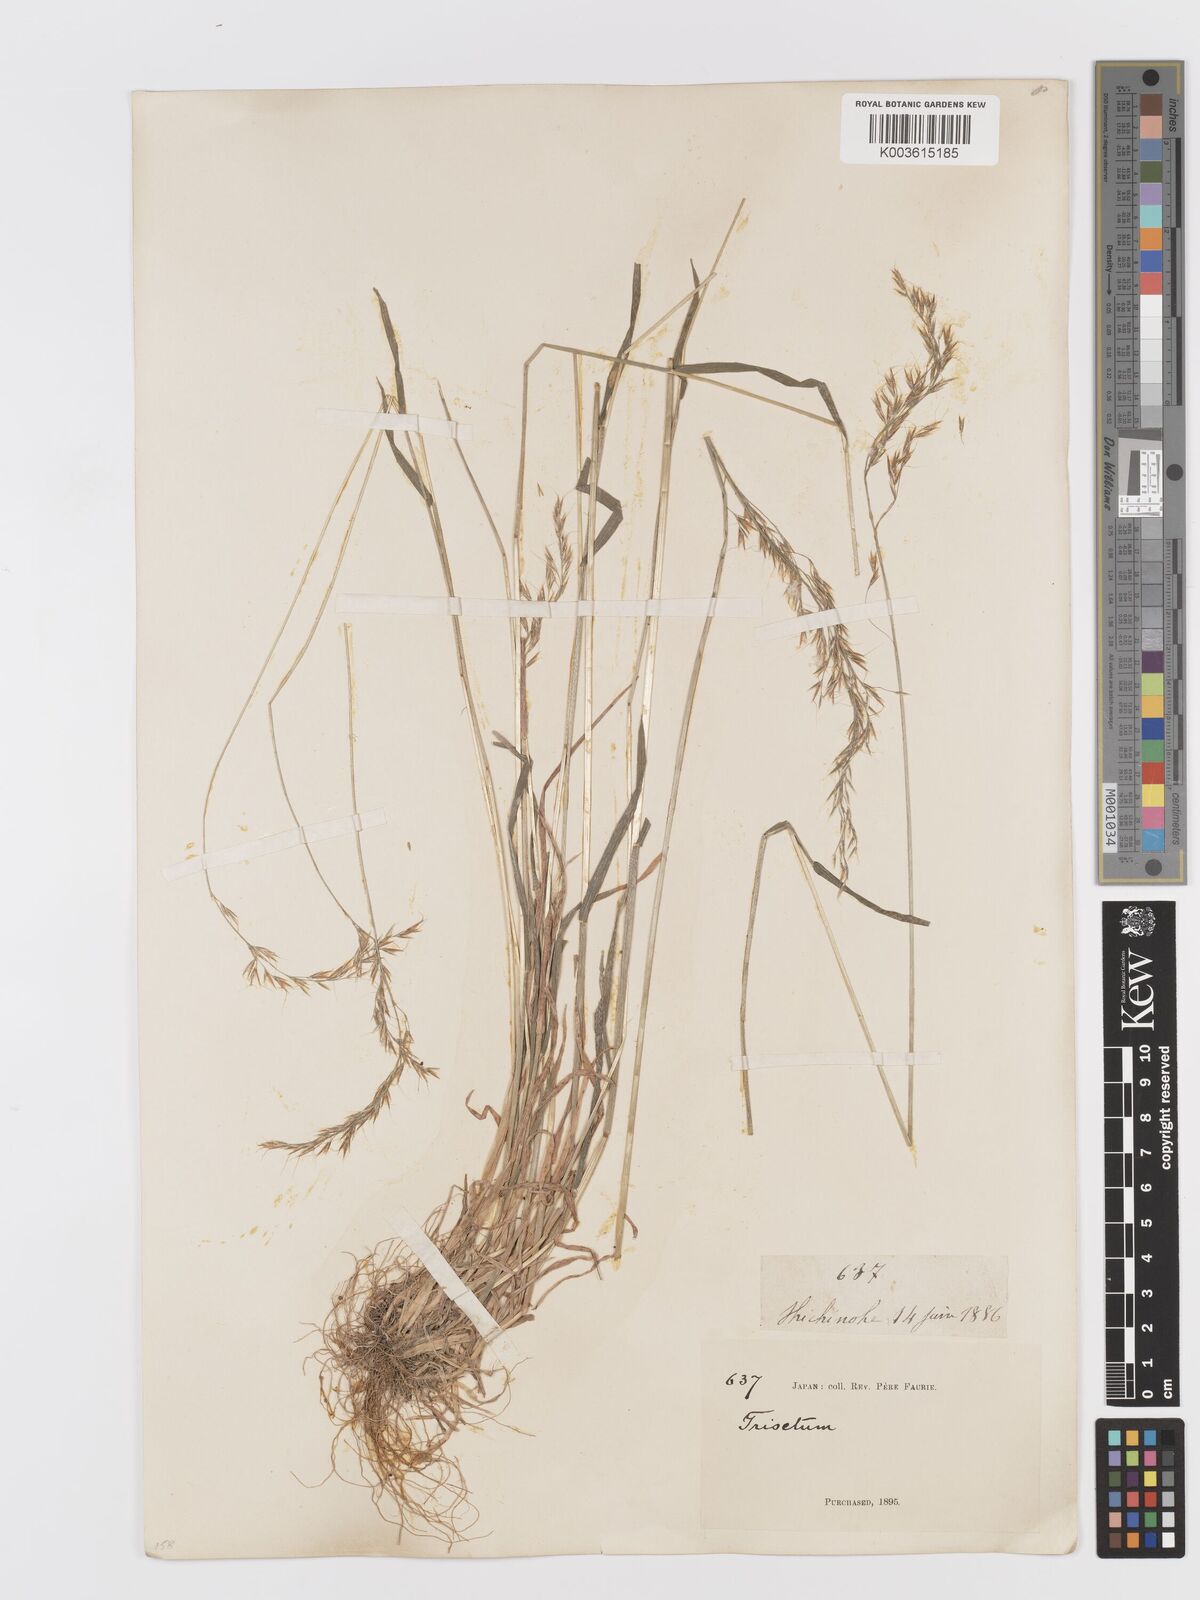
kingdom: Plantae
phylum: Tracheophyta
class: Liliopsida
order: Poales
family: Poaceae
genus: Sibirotrisetum
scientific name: Sibirotrisetum bifidum
